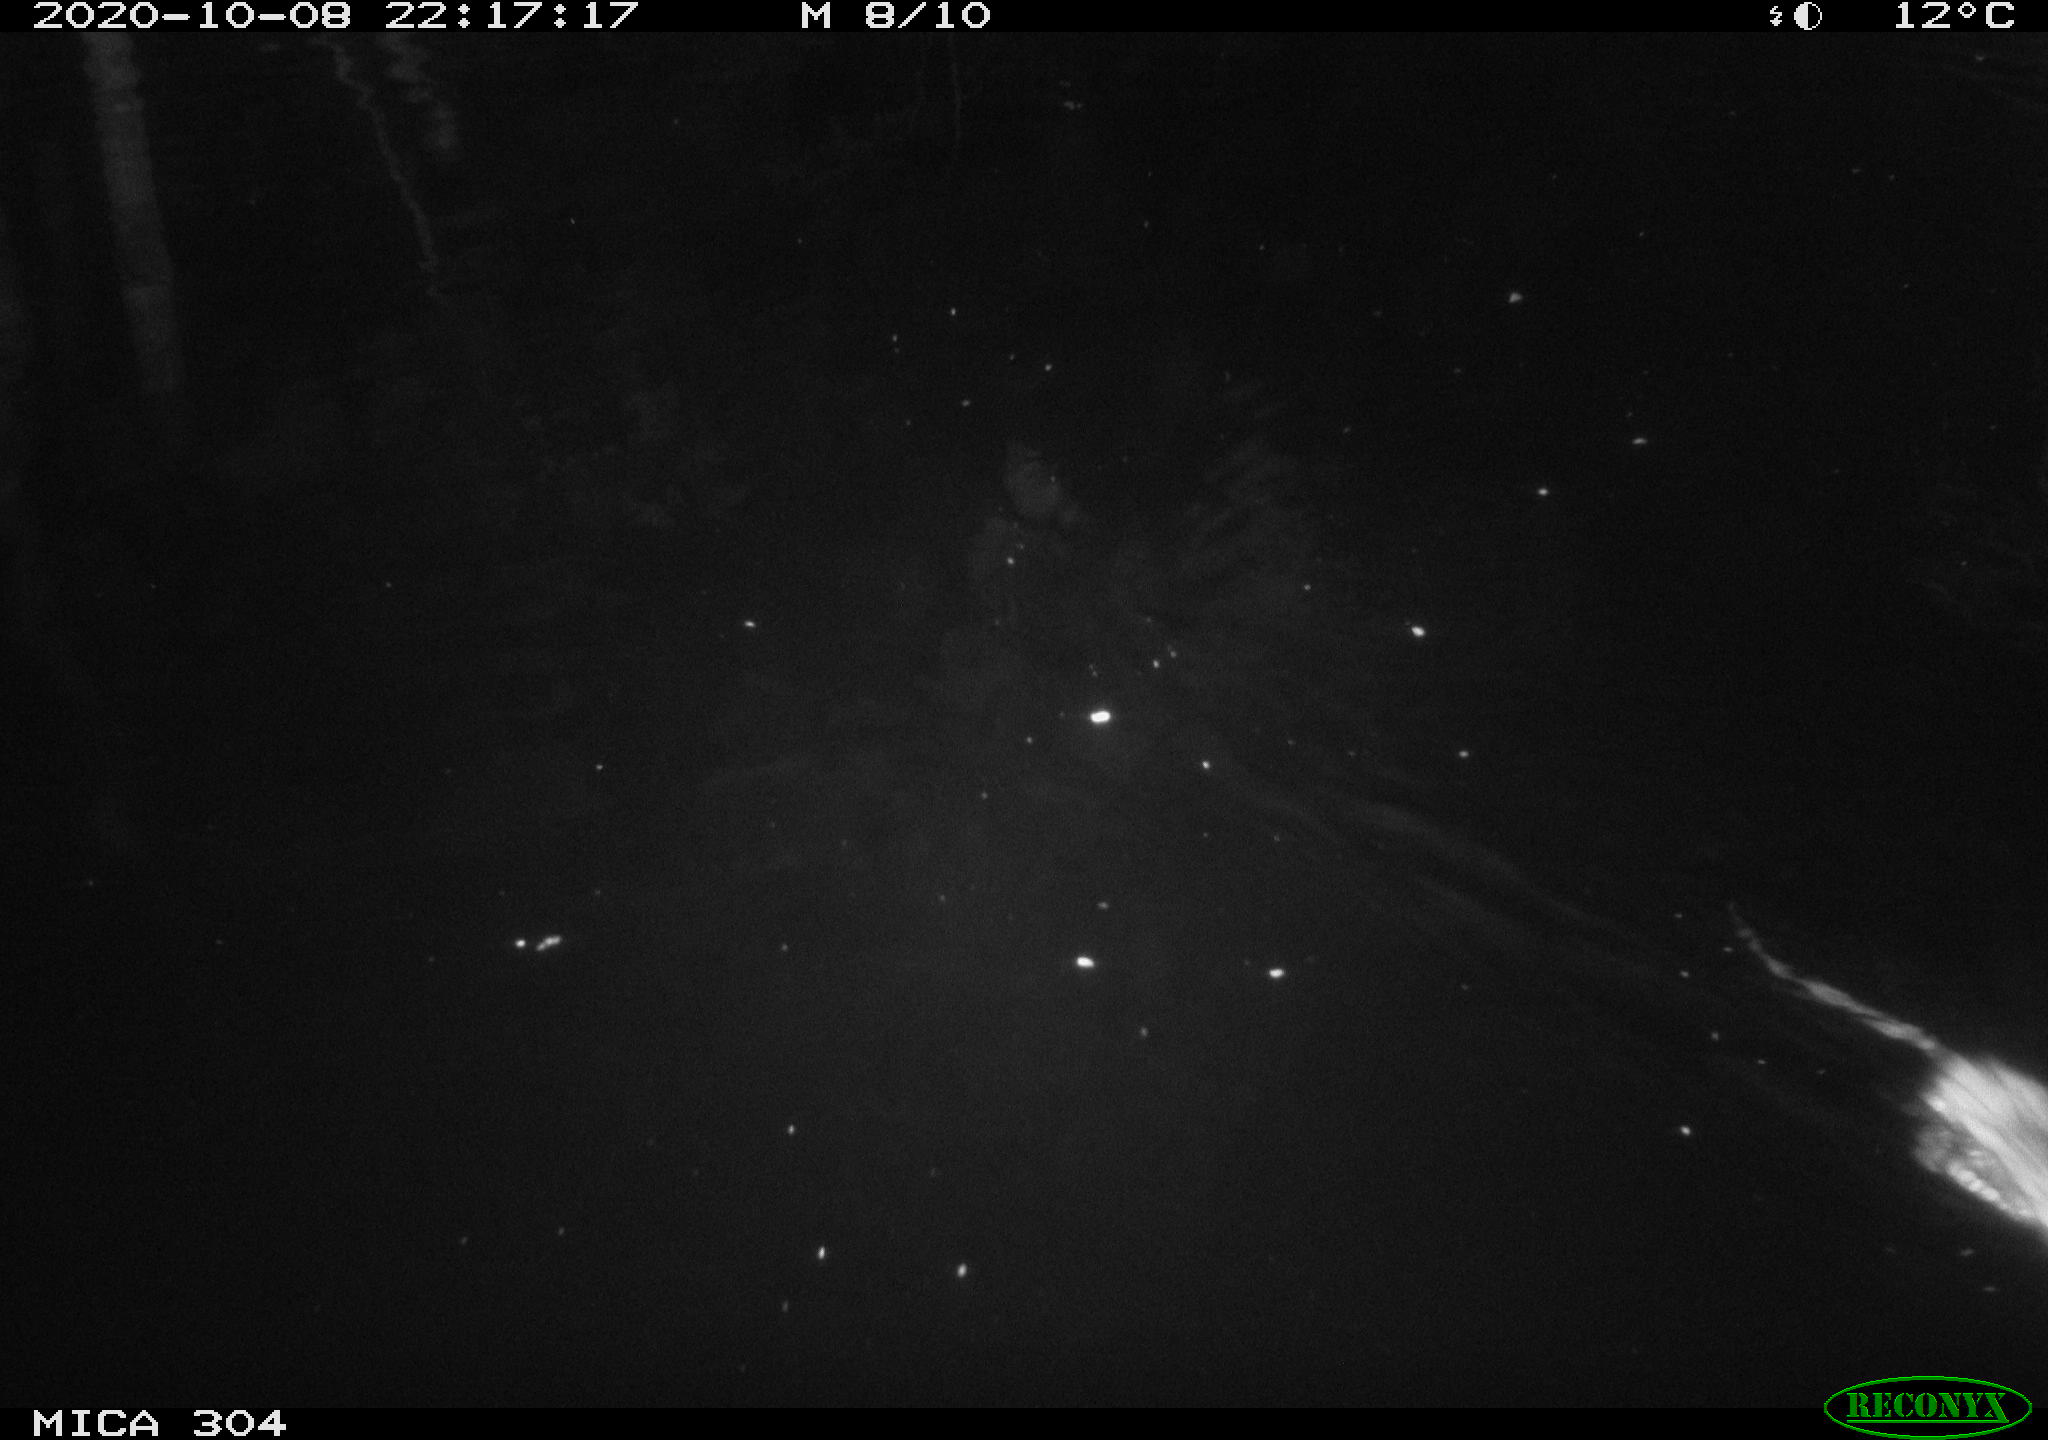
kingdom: Animalia
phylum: Chordata
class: Mammalia
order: Rodentia
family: Muridae
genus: Rattus
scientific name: Rattus norvegicus
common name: Brown rat
